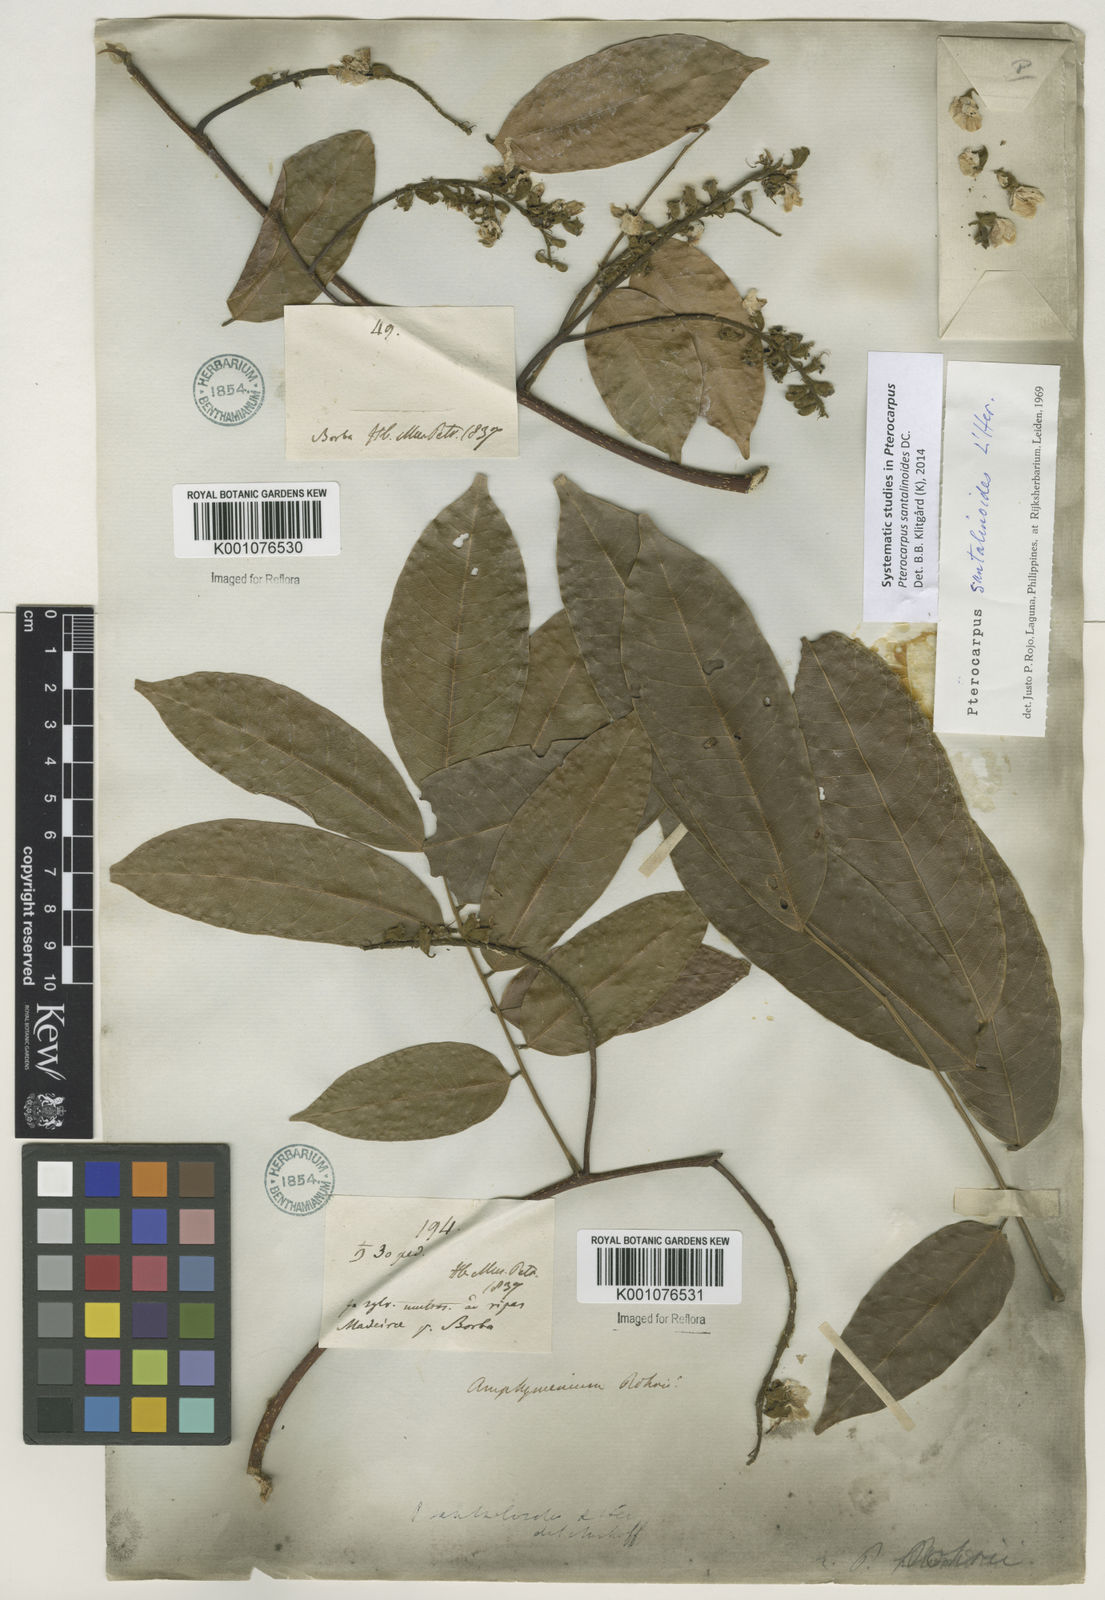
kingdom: Plantae
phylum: Tracheophyta
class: Magnoliopsida
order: Fabales
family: Fabaceae
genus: Pterocarpus
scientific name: Pterocarpus santalinoides
